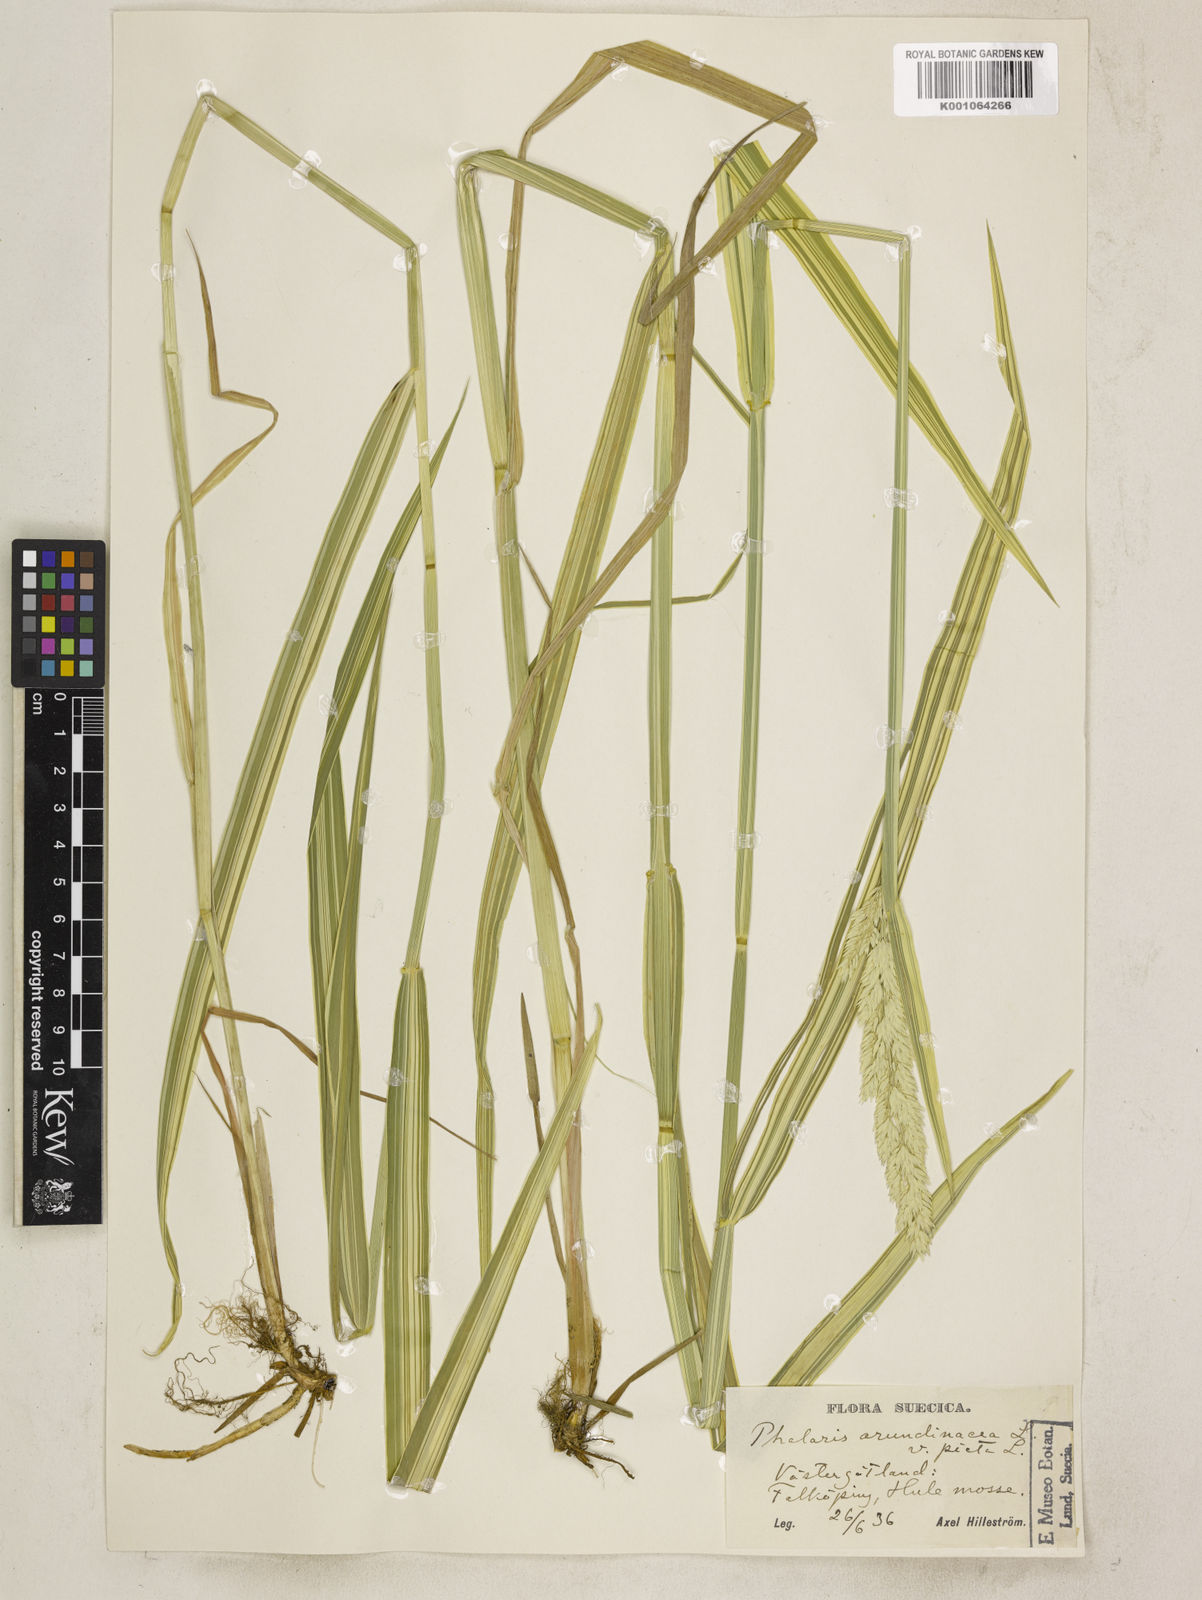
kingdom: Plantae
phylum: Tracheophyta
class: Liliopsida
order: Poales
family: Poaceae
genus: Phalaris
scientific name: Phalaris arundinacea
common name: Reed canary-grass
